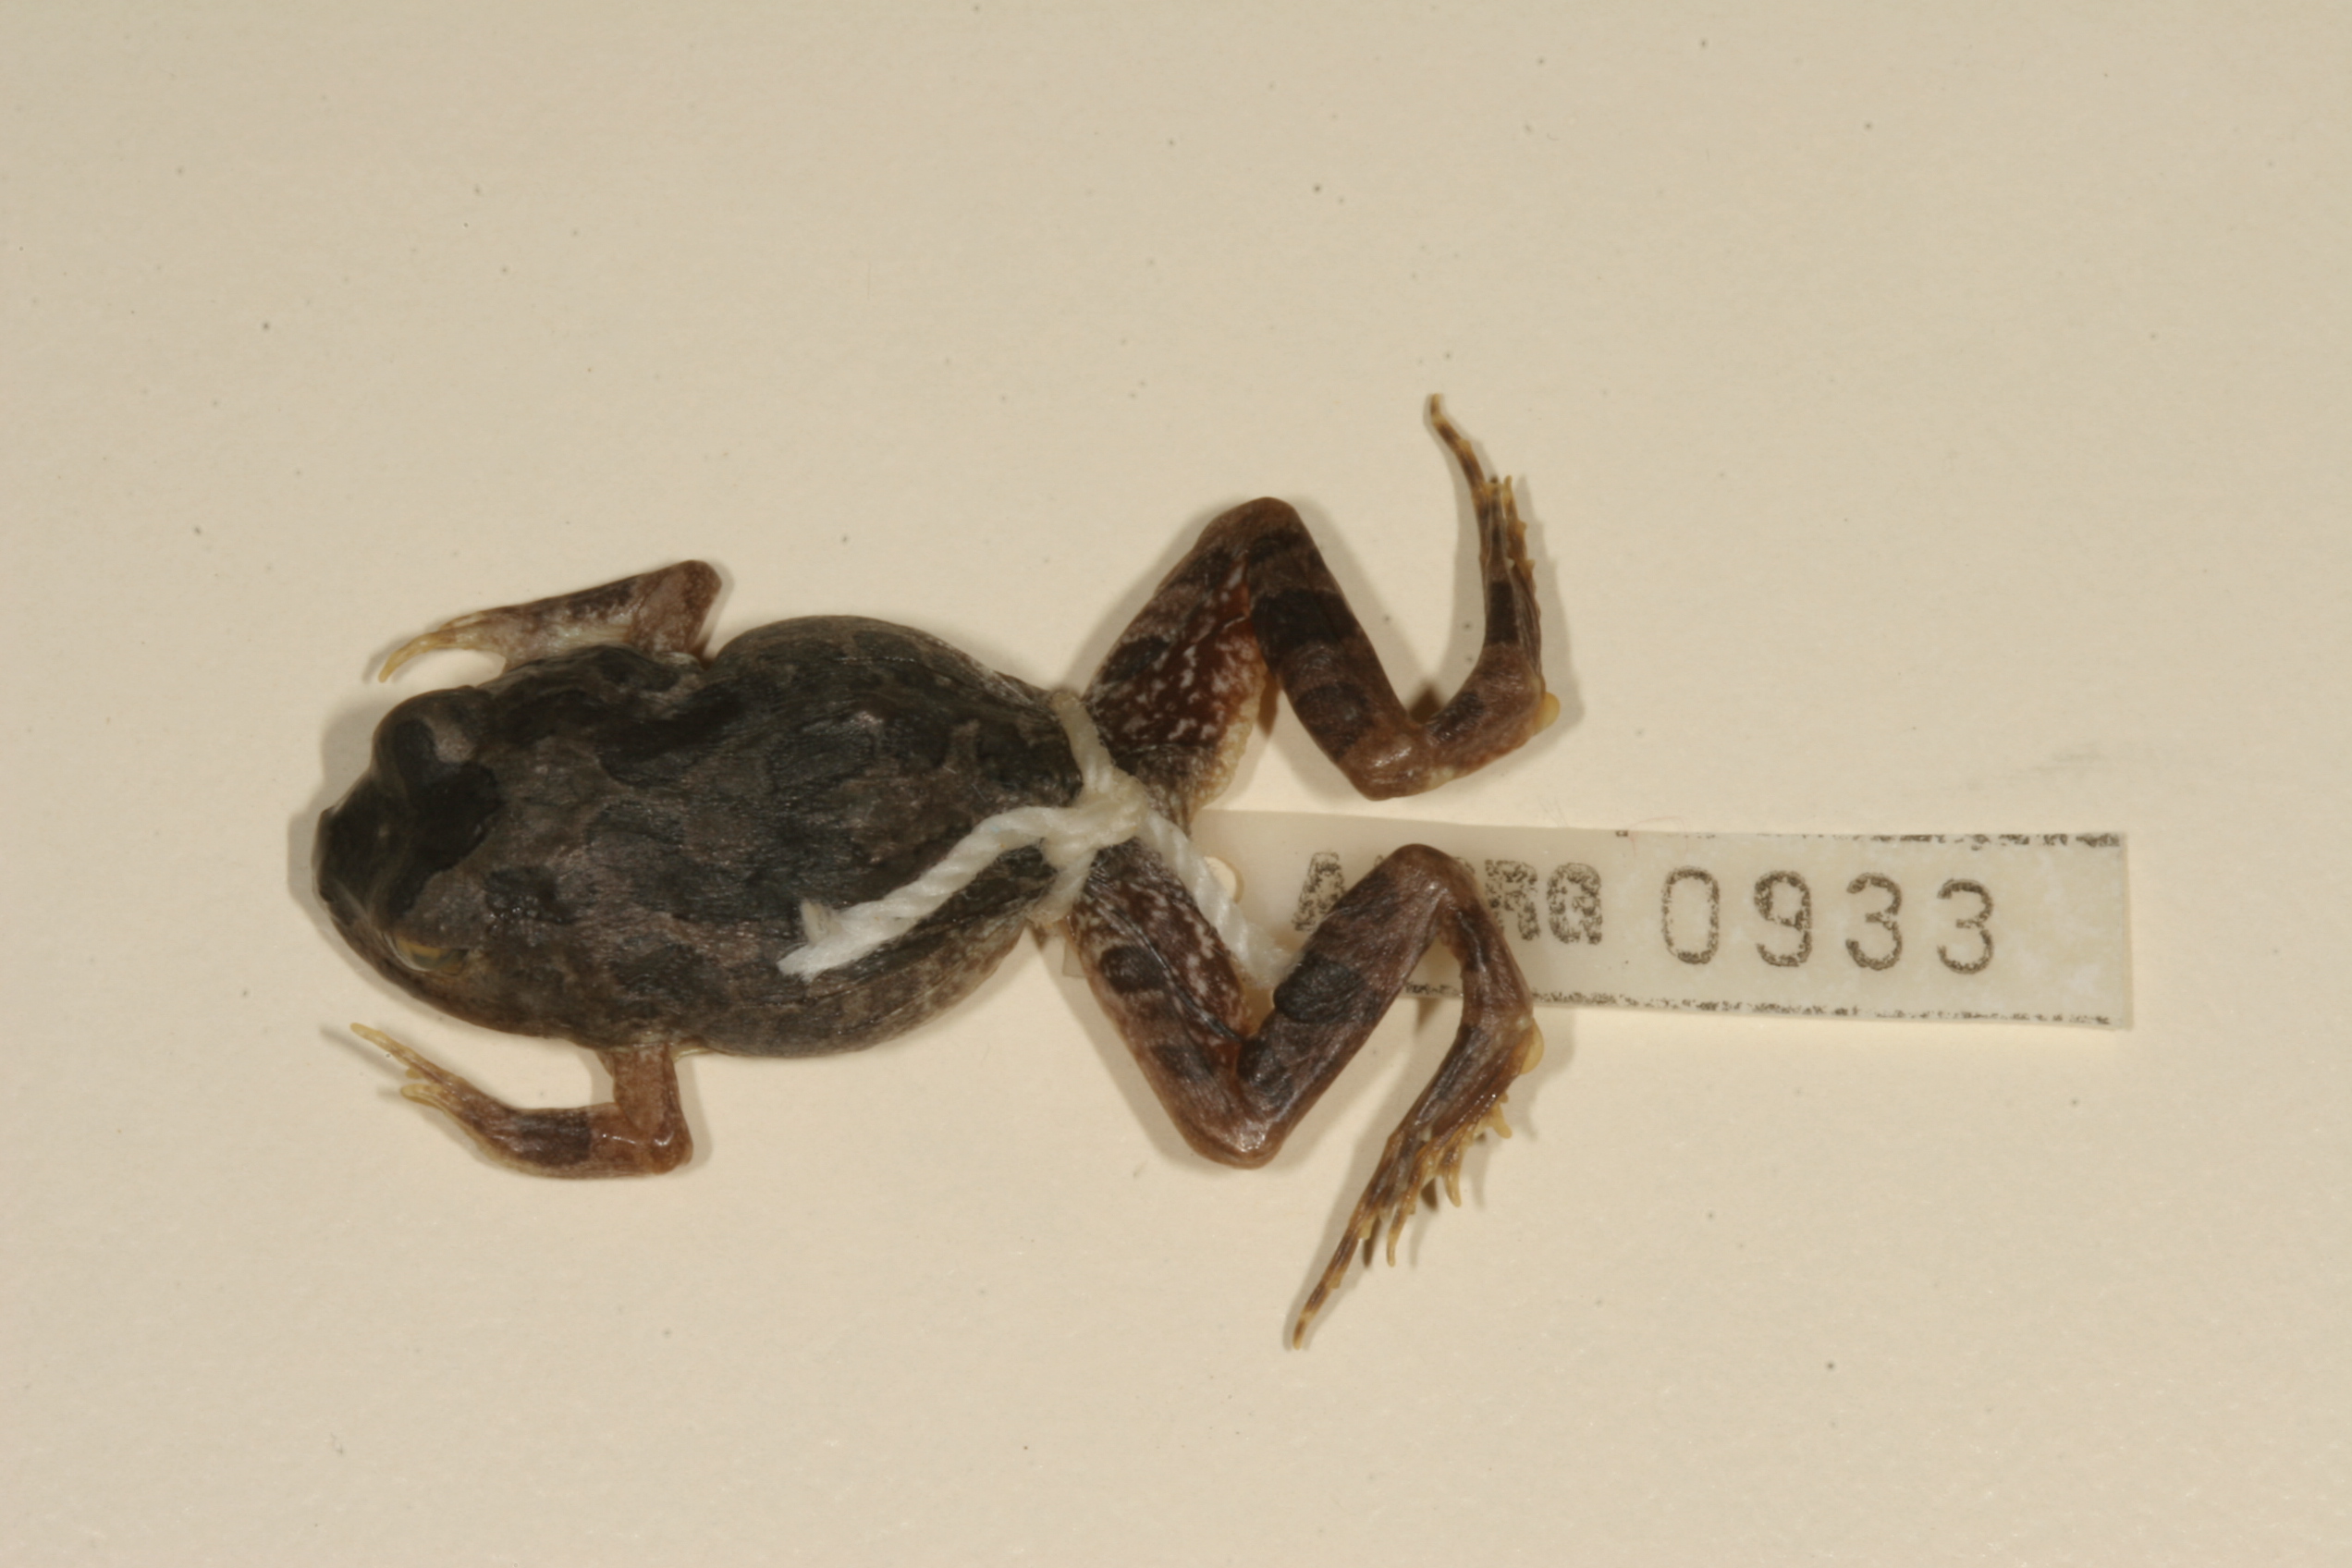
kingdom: Animalia
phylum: Chordata
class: Amphibia
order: Anura
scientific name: Anura
